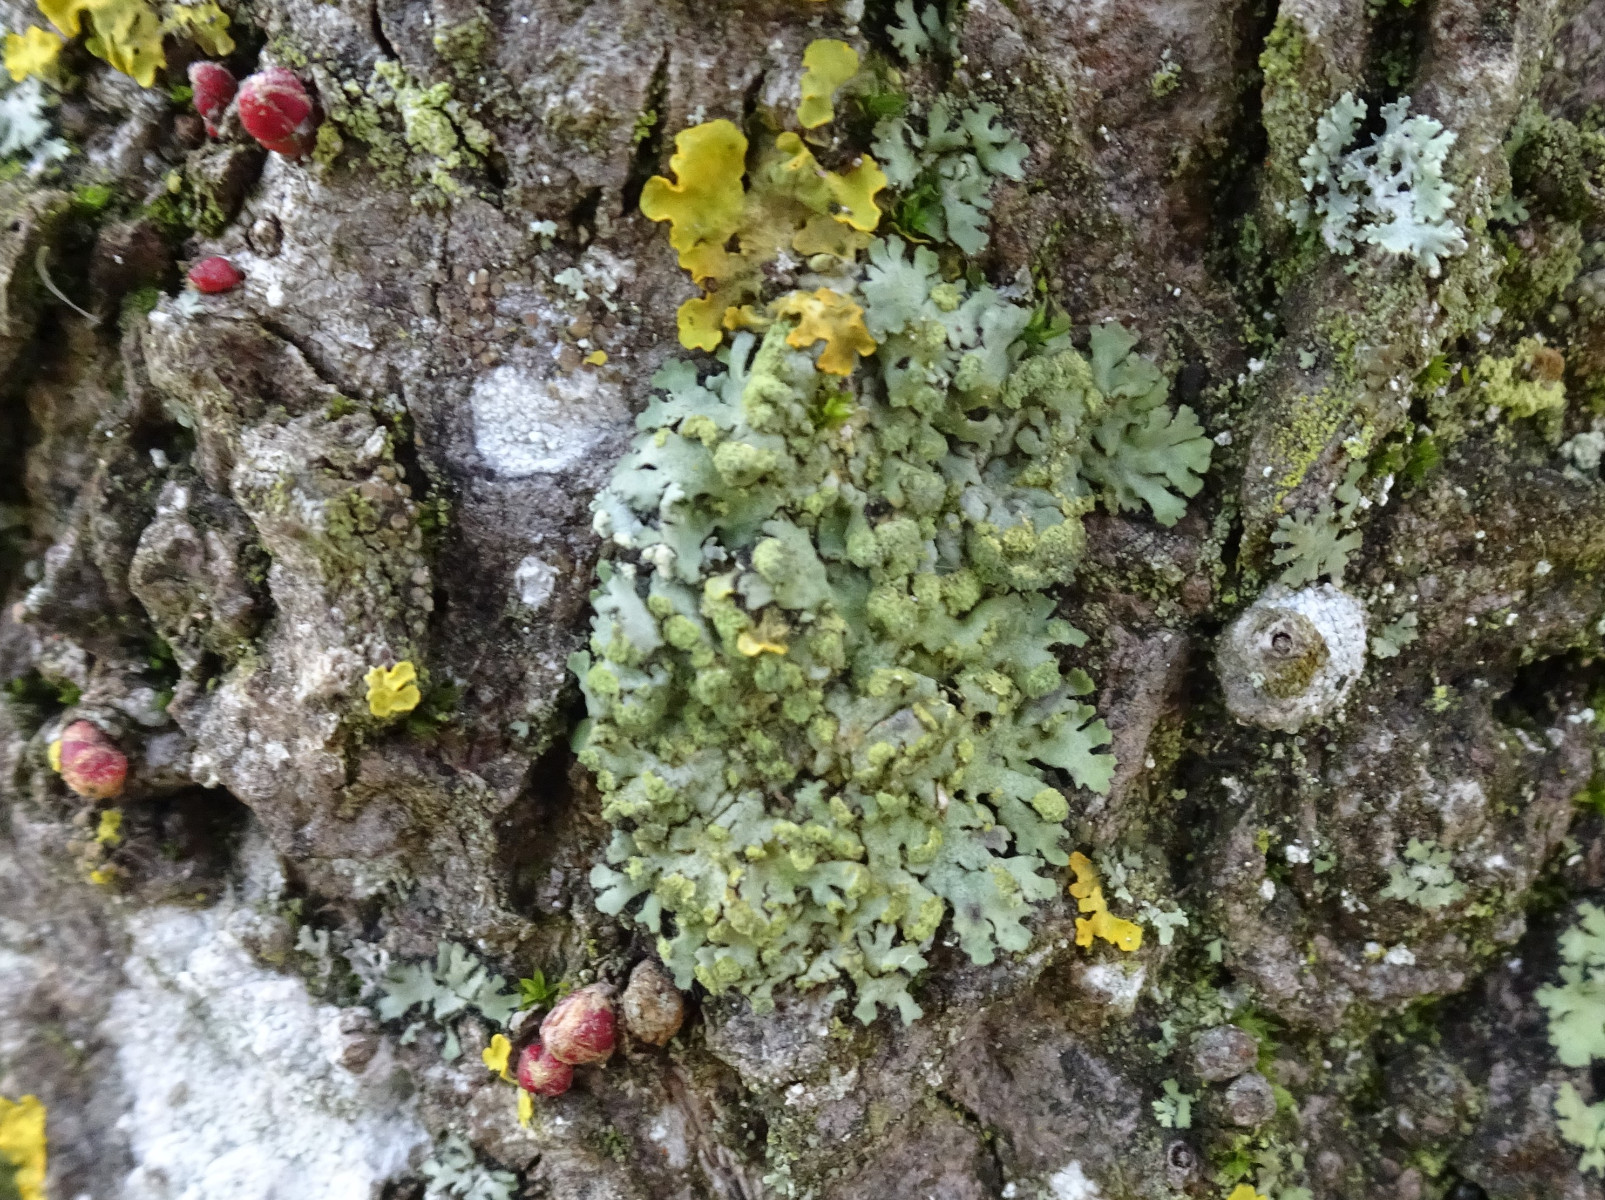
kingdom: Fungi
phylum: Ascomycota
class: Lecanoromycetes
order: Caliciales
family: Physciaceae
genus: Phaeophyscia
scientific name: Phaeophyscia orbicularis
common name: grågrøn rosetlav
